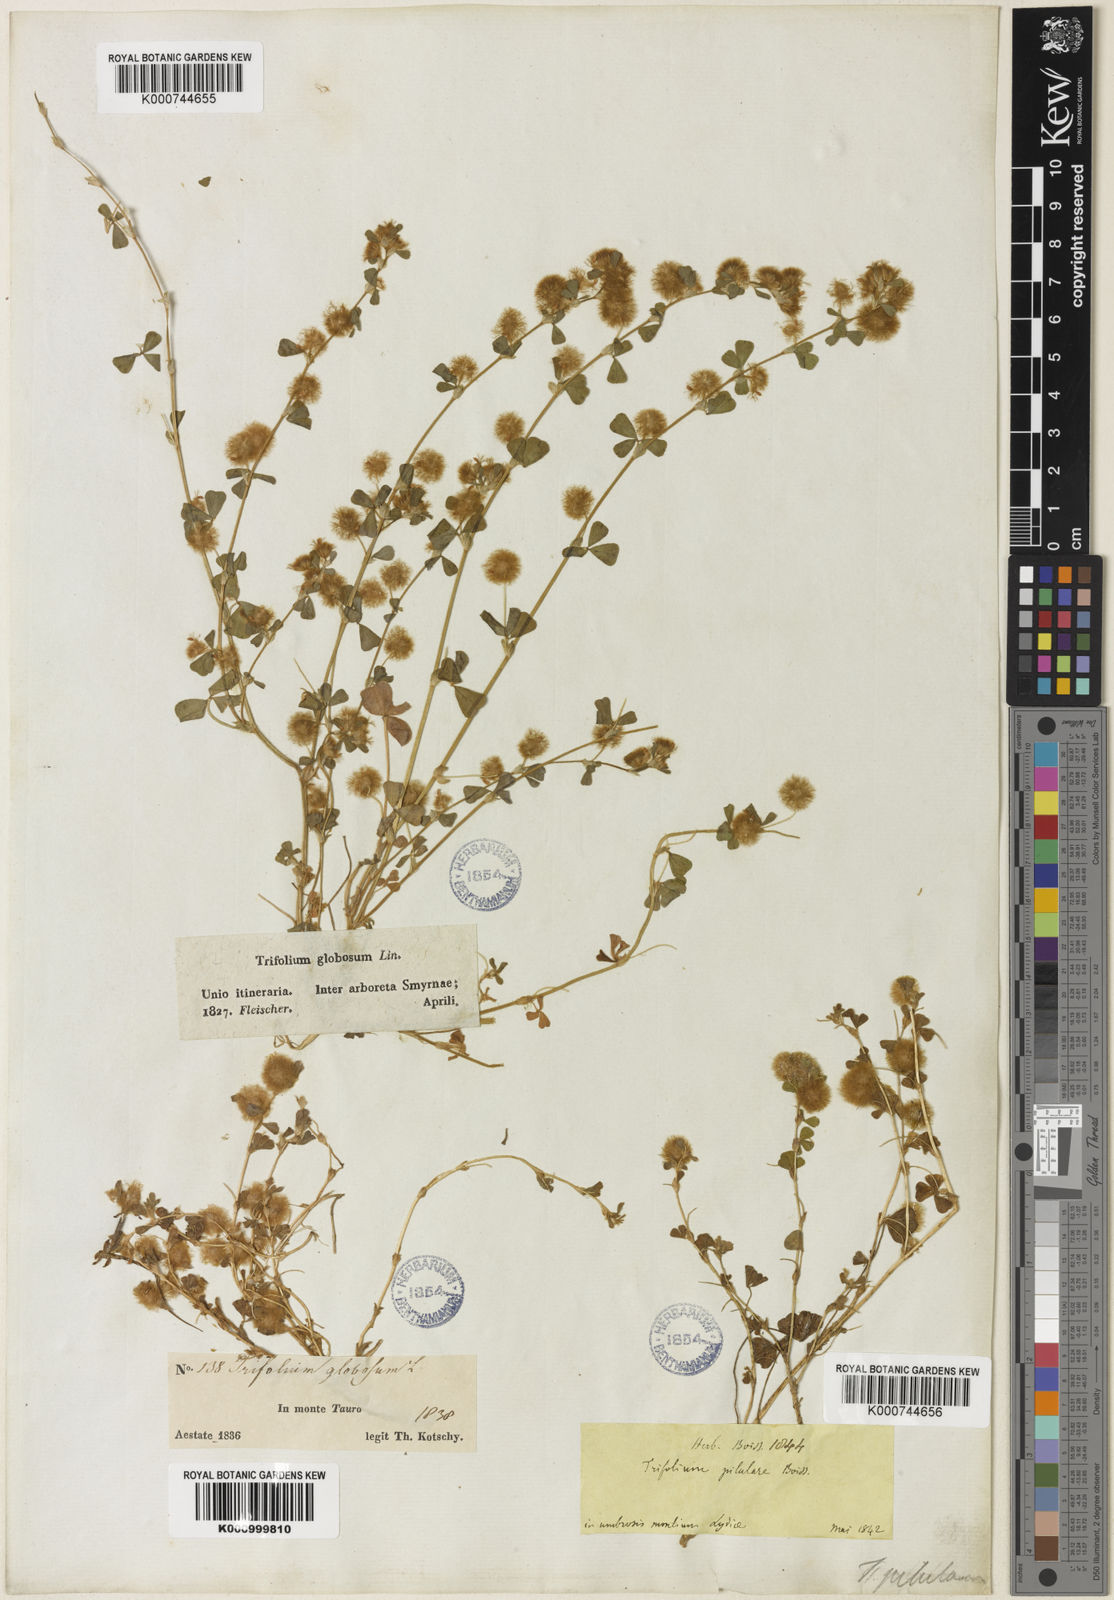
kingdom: Plantae
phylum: Tracheophyta
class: Magnoliopsida
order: Fabales
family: Fabaceae
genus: Trifolium
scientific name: Trifolium pilulare
